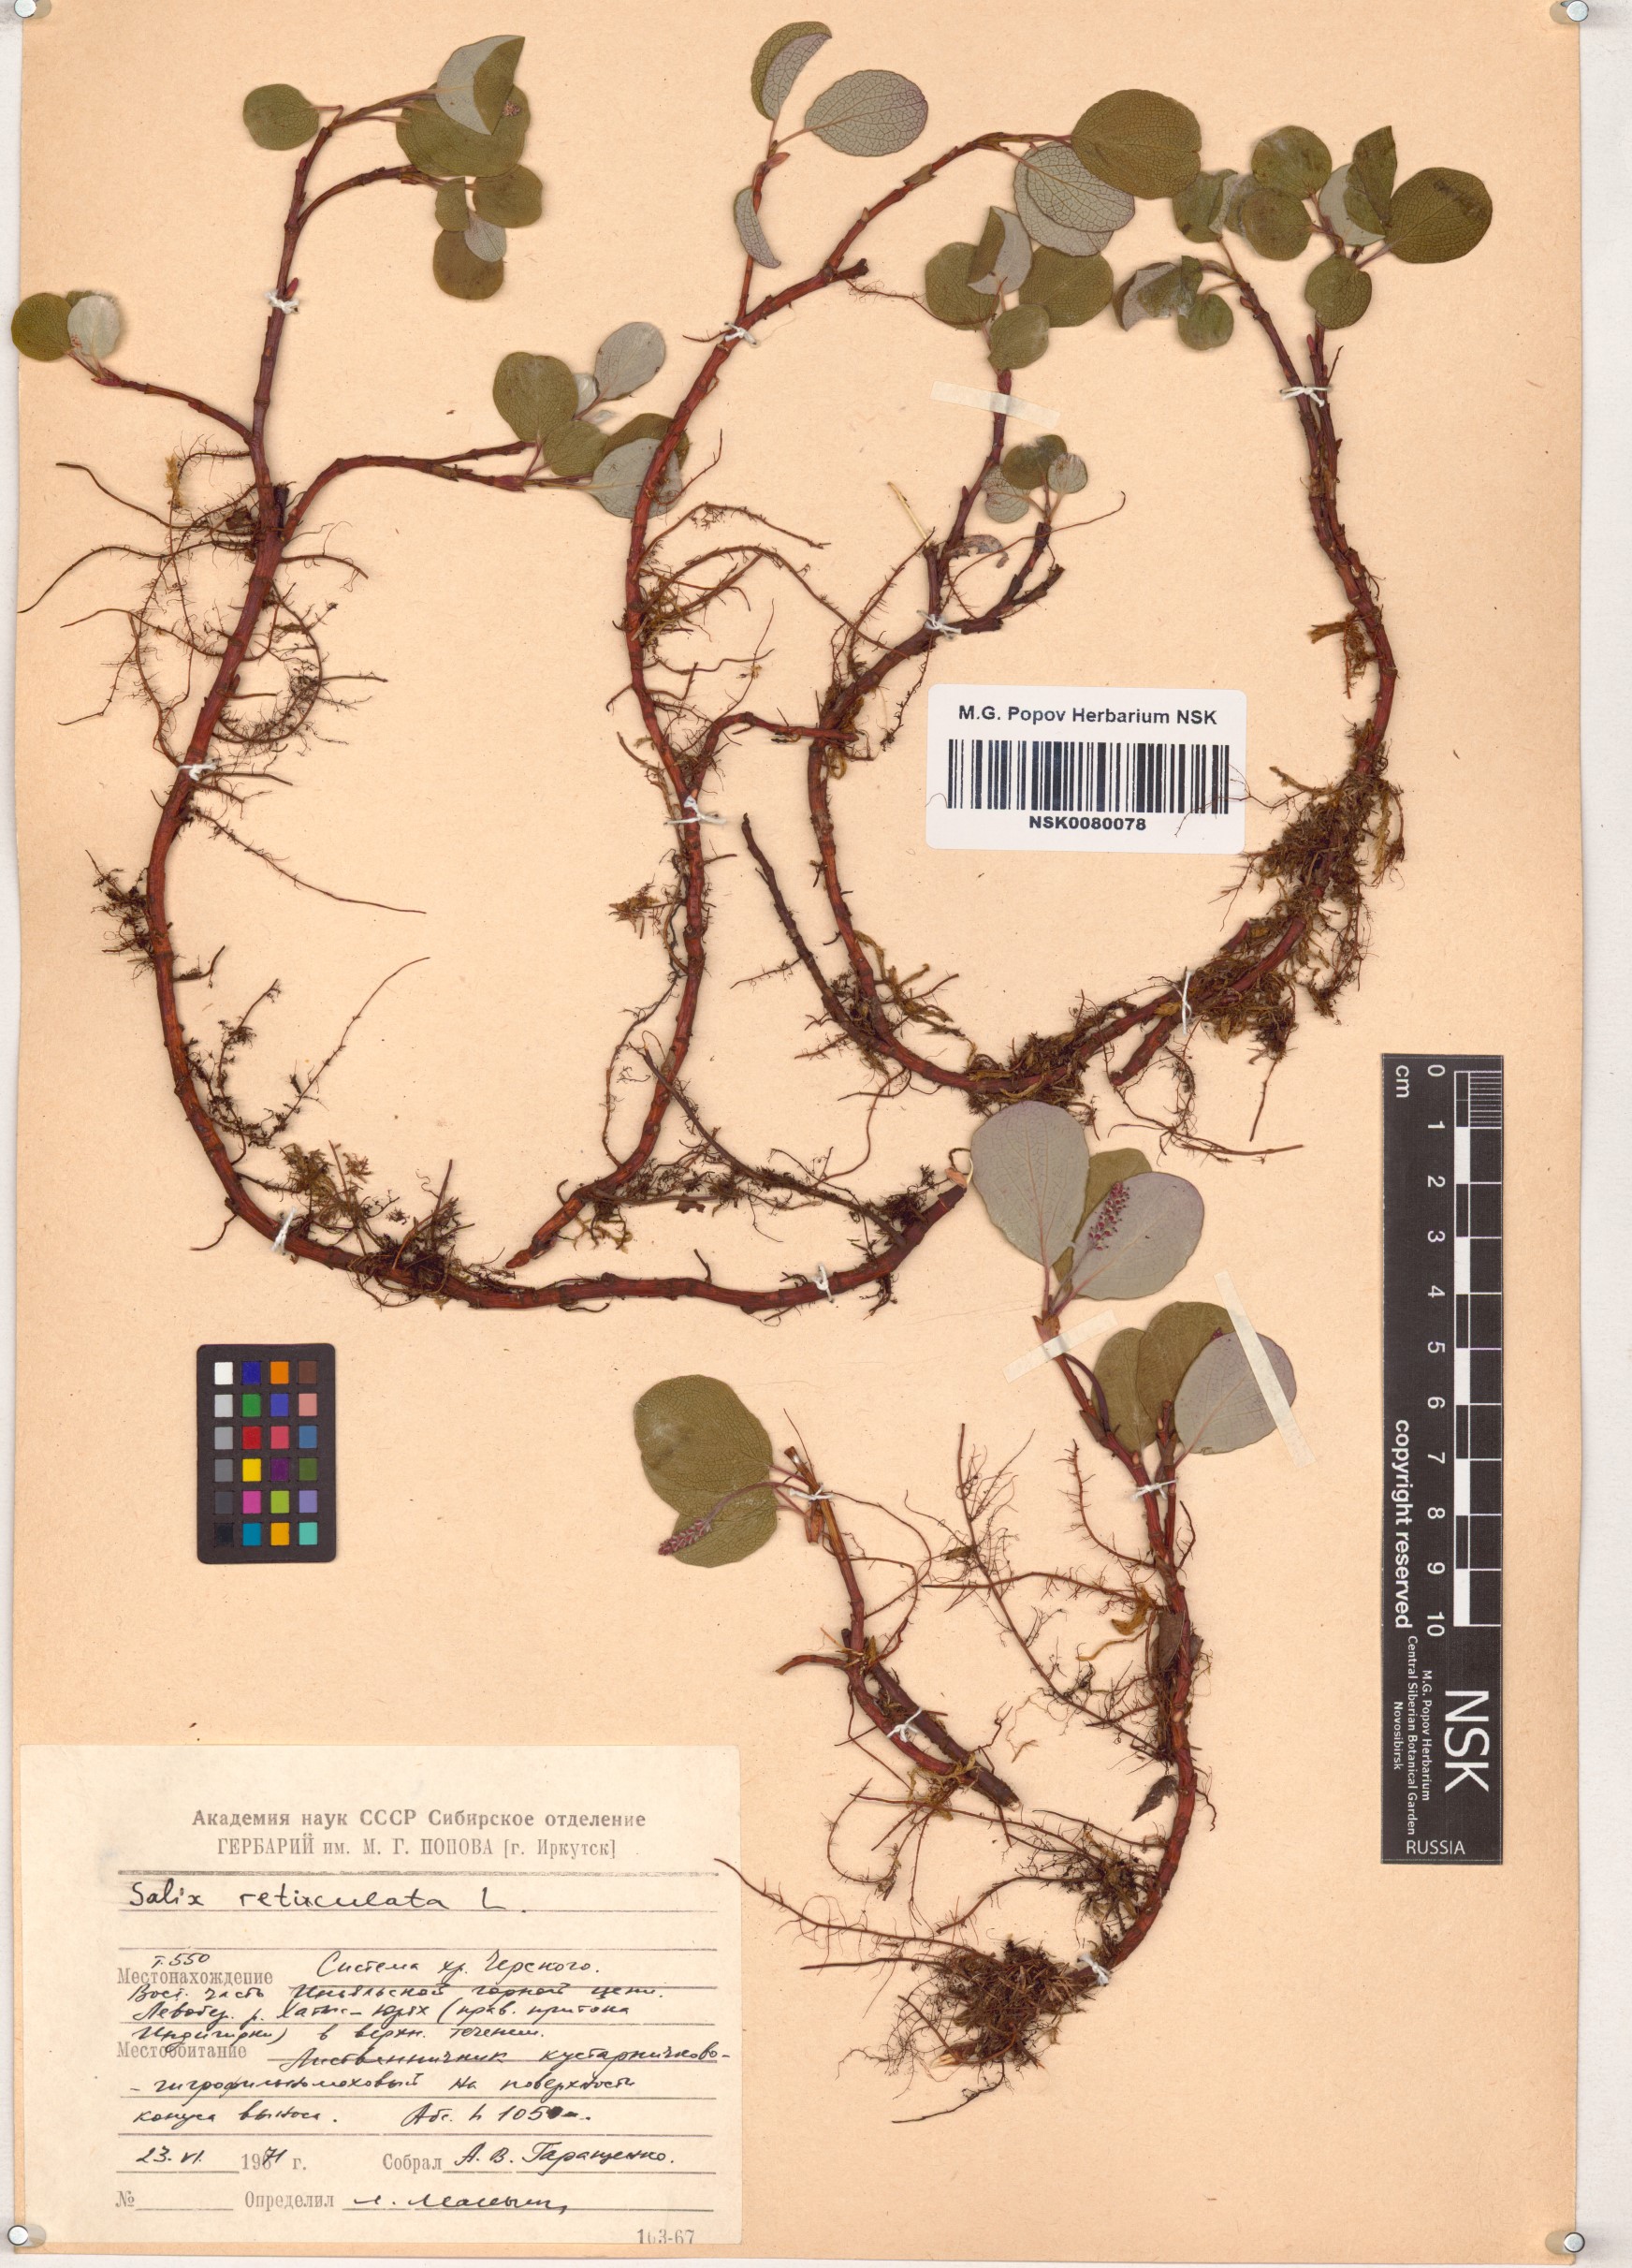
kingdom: Plantae
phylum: Tracheophyta
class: Magnoliopsida
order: Malpighiales
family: Salicaceae
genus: Salix
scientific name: Salix reticulata
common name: Net-leaved willow
